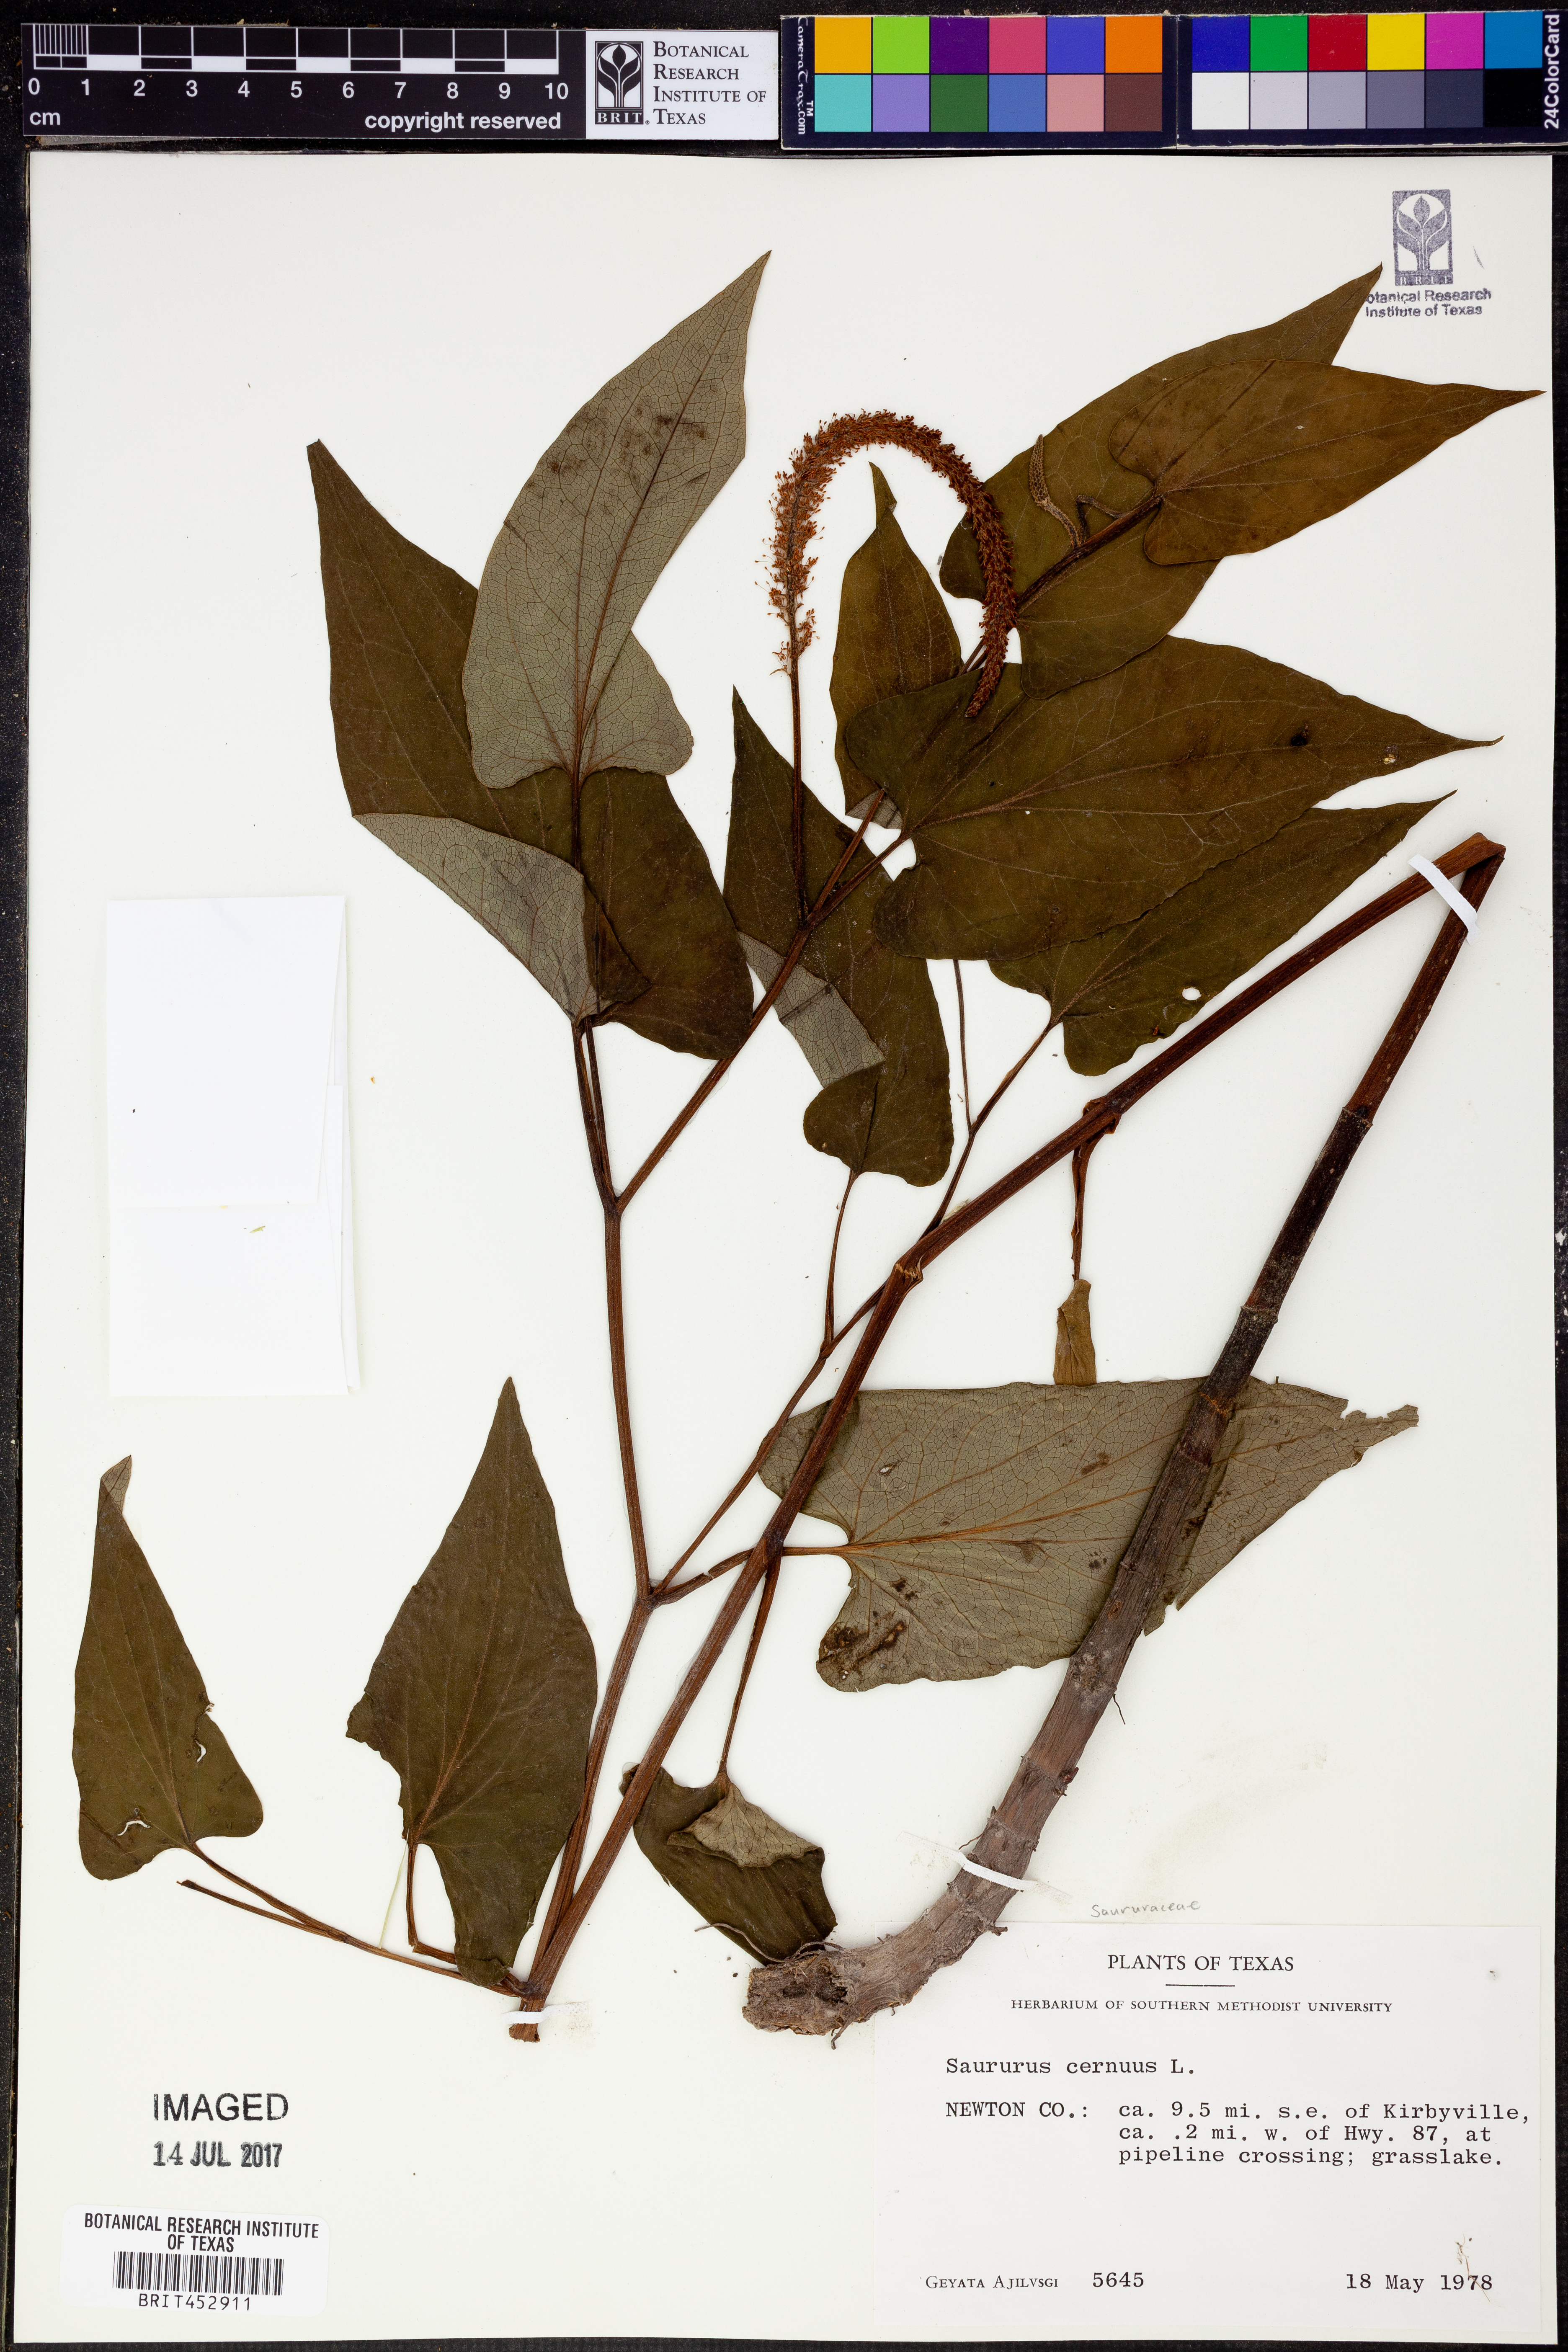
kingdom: Plantae
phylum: Tracheophyta
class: Magnoliopsida
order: Piperales
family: Saururaceae
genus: Saururus
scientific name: Saururus cernuus
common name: Lizard's-tail
